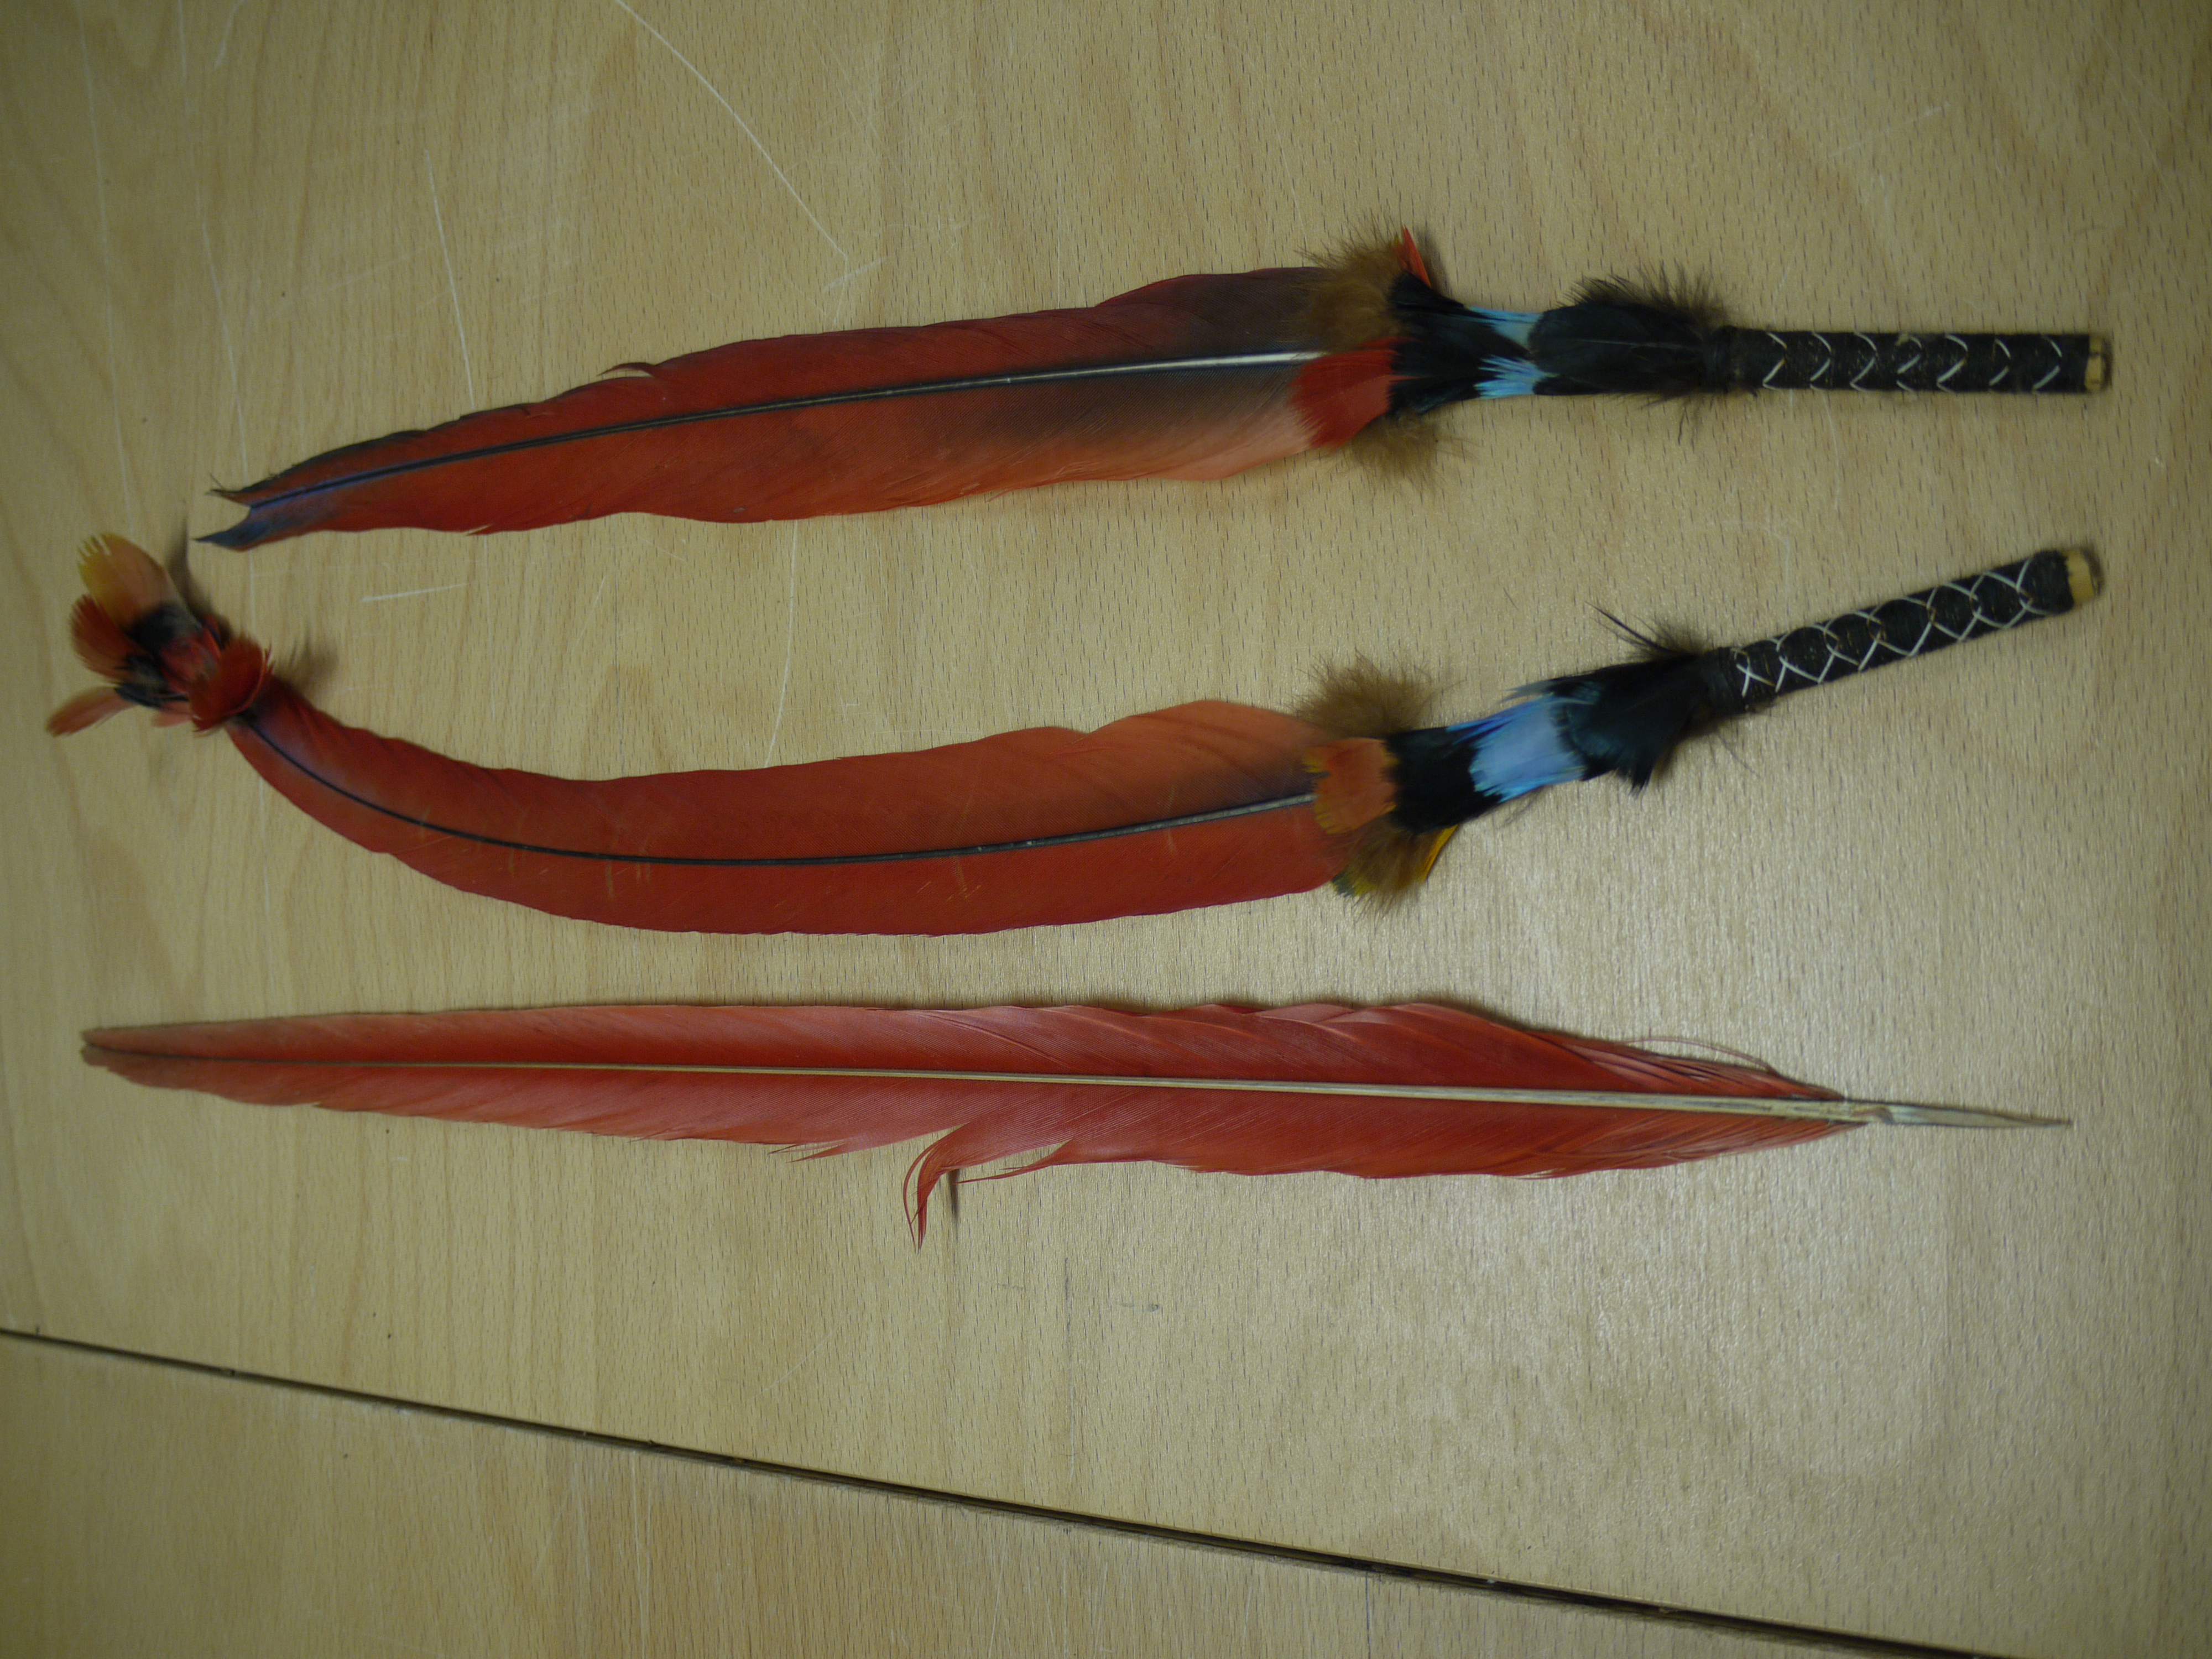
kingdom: Animalia
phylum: Chordata
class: Aves
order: Psittaciformes
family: Psittacidae
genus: Ara
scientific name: Ara macao
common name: Scarlet macaw
